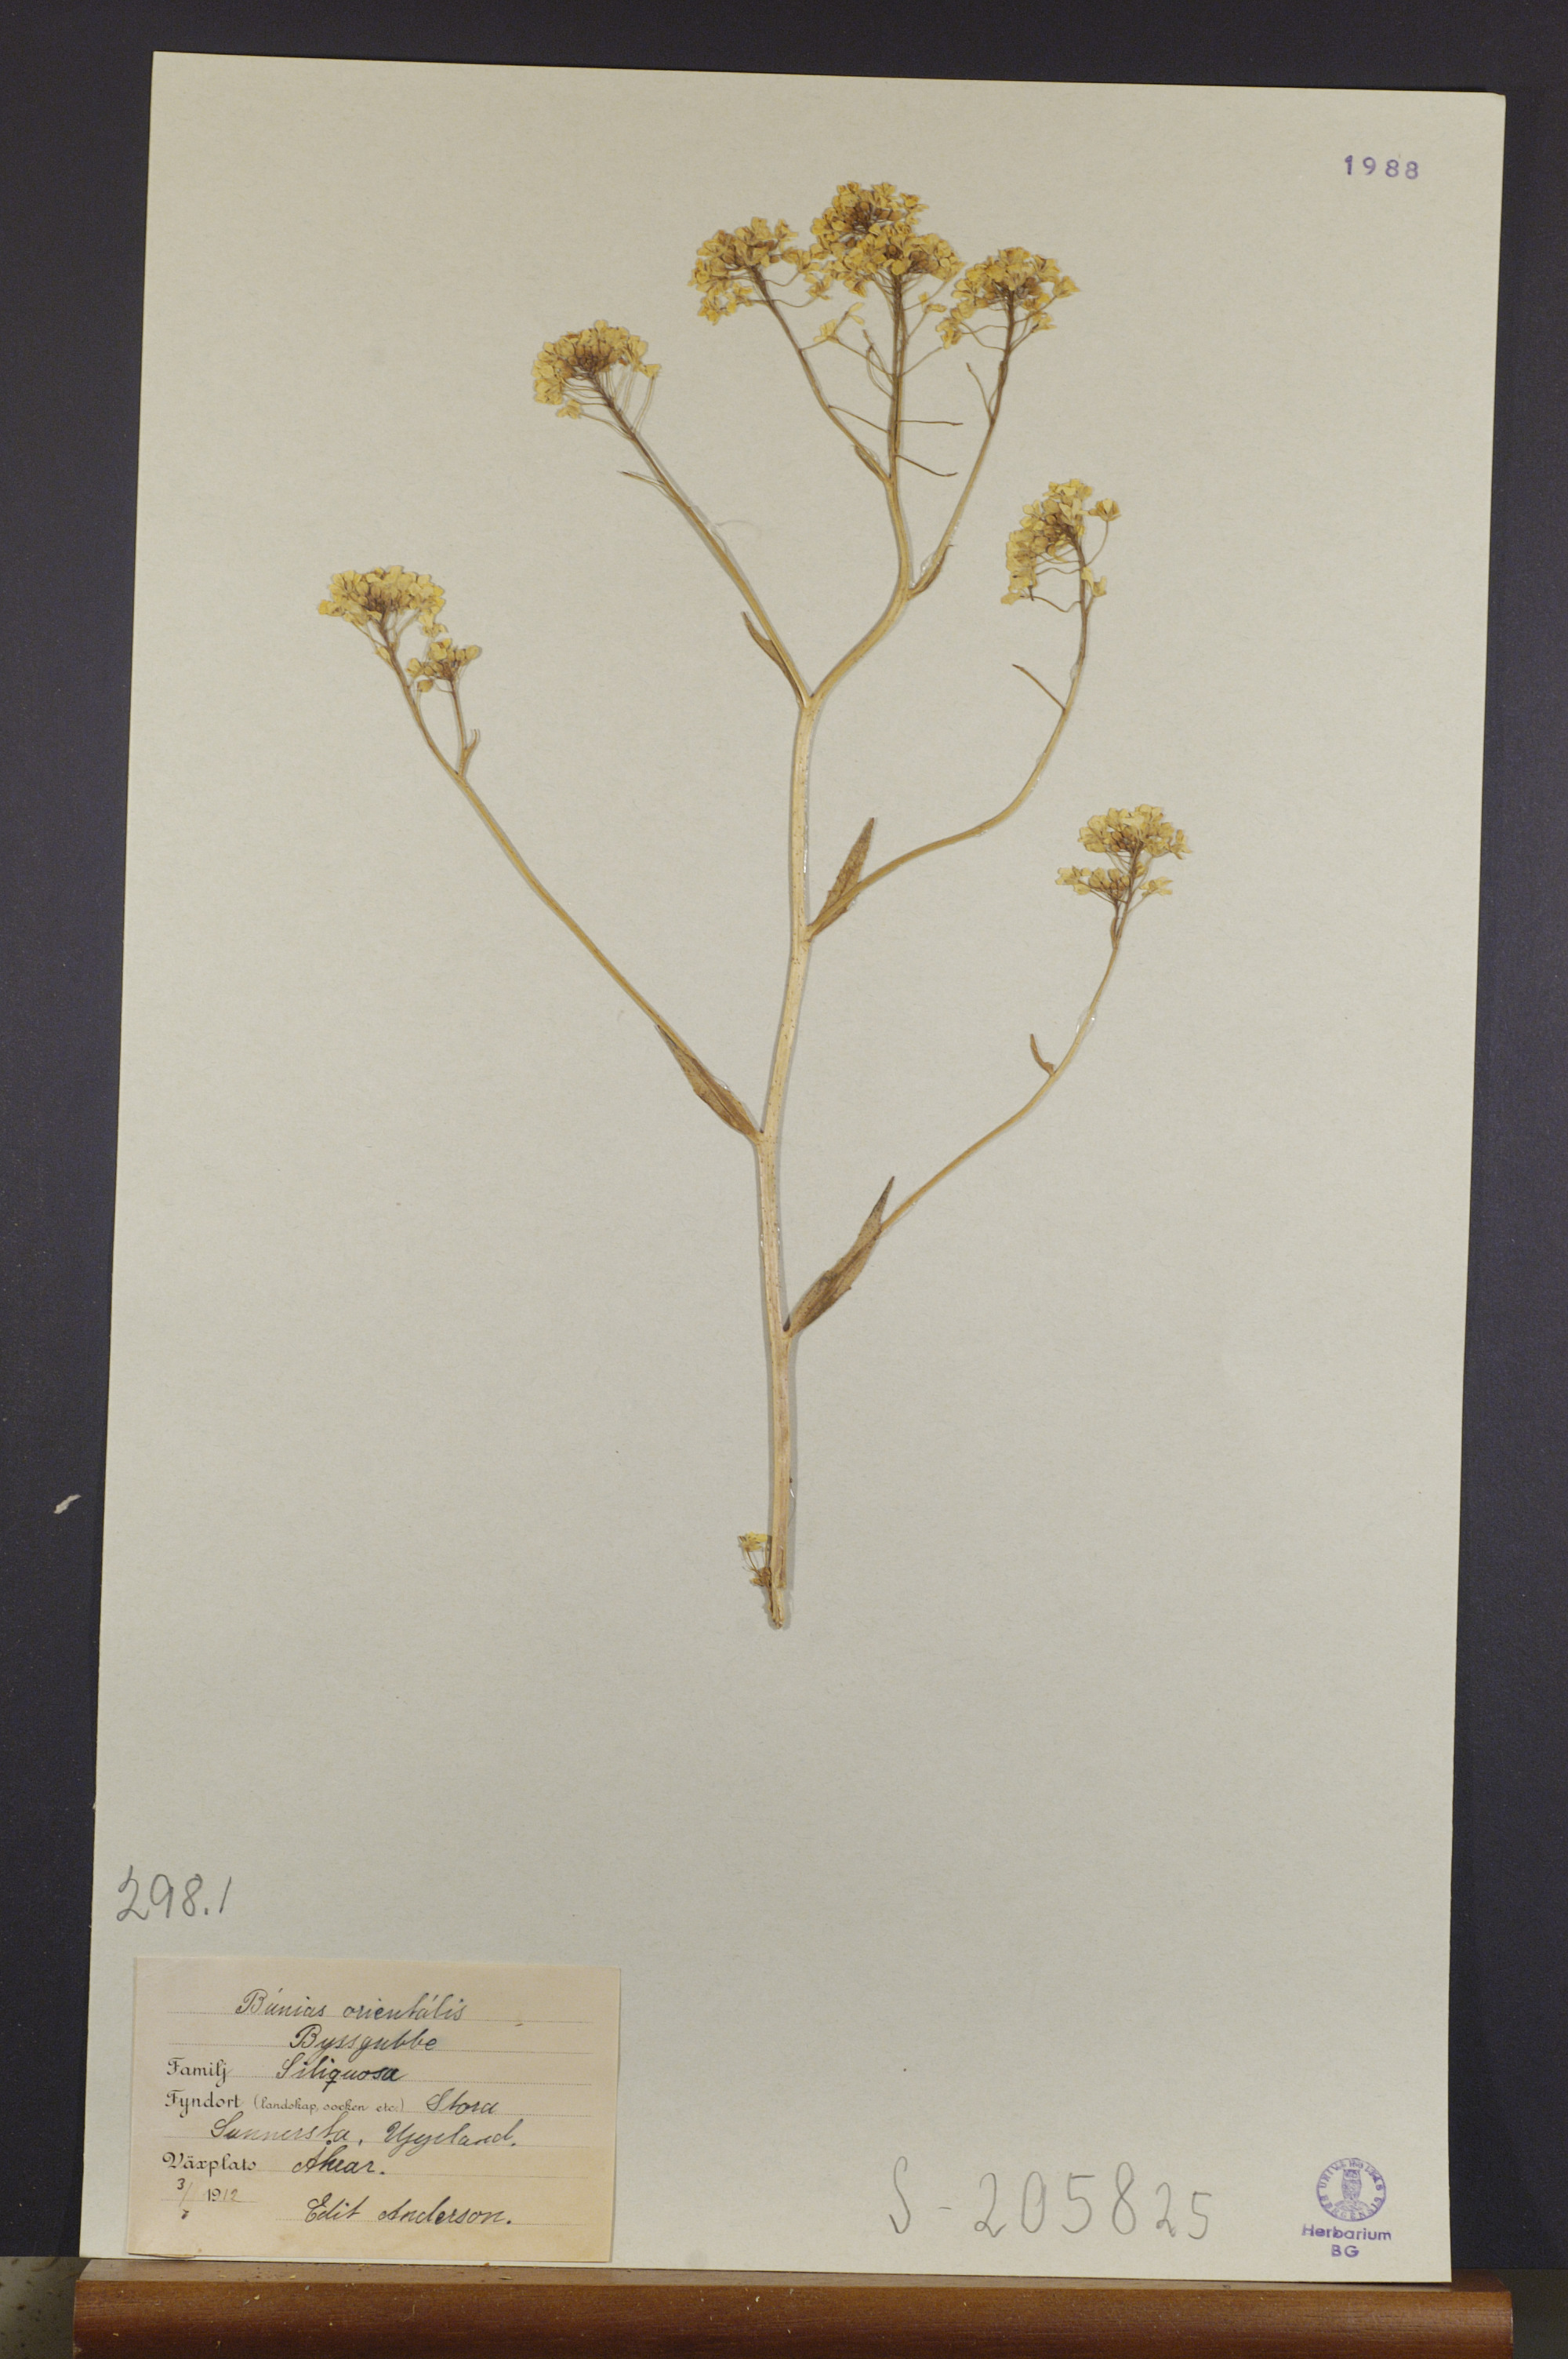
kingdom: Plantae
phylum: Tracheophyta
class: Magnoliopsida
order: Brassicales
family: Brassicaceae
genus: Bunias
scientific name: Bunias orientalis
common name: Warty-cabbage
